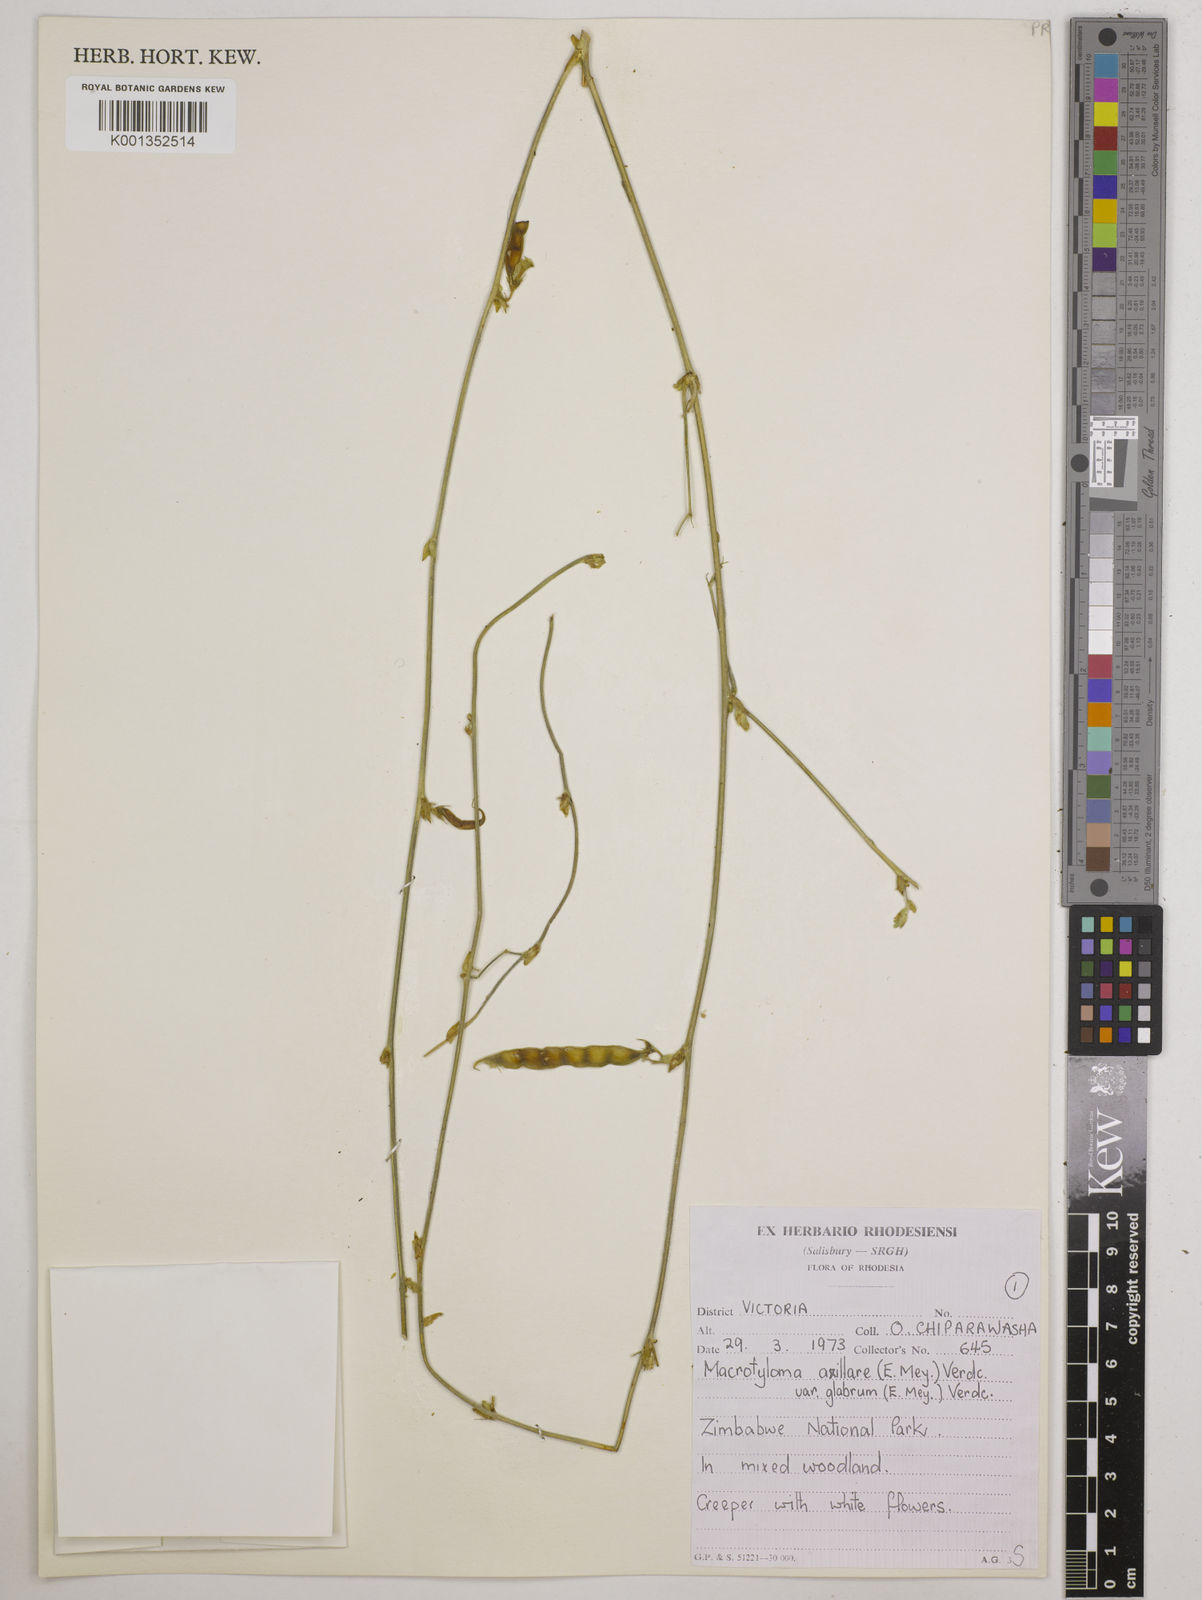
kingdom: Plantae
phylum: Tracheophyta
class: Magnoliopsida
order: Fabales
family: Fabaceae
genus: Macrotyloma
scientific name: Macrotyloma
